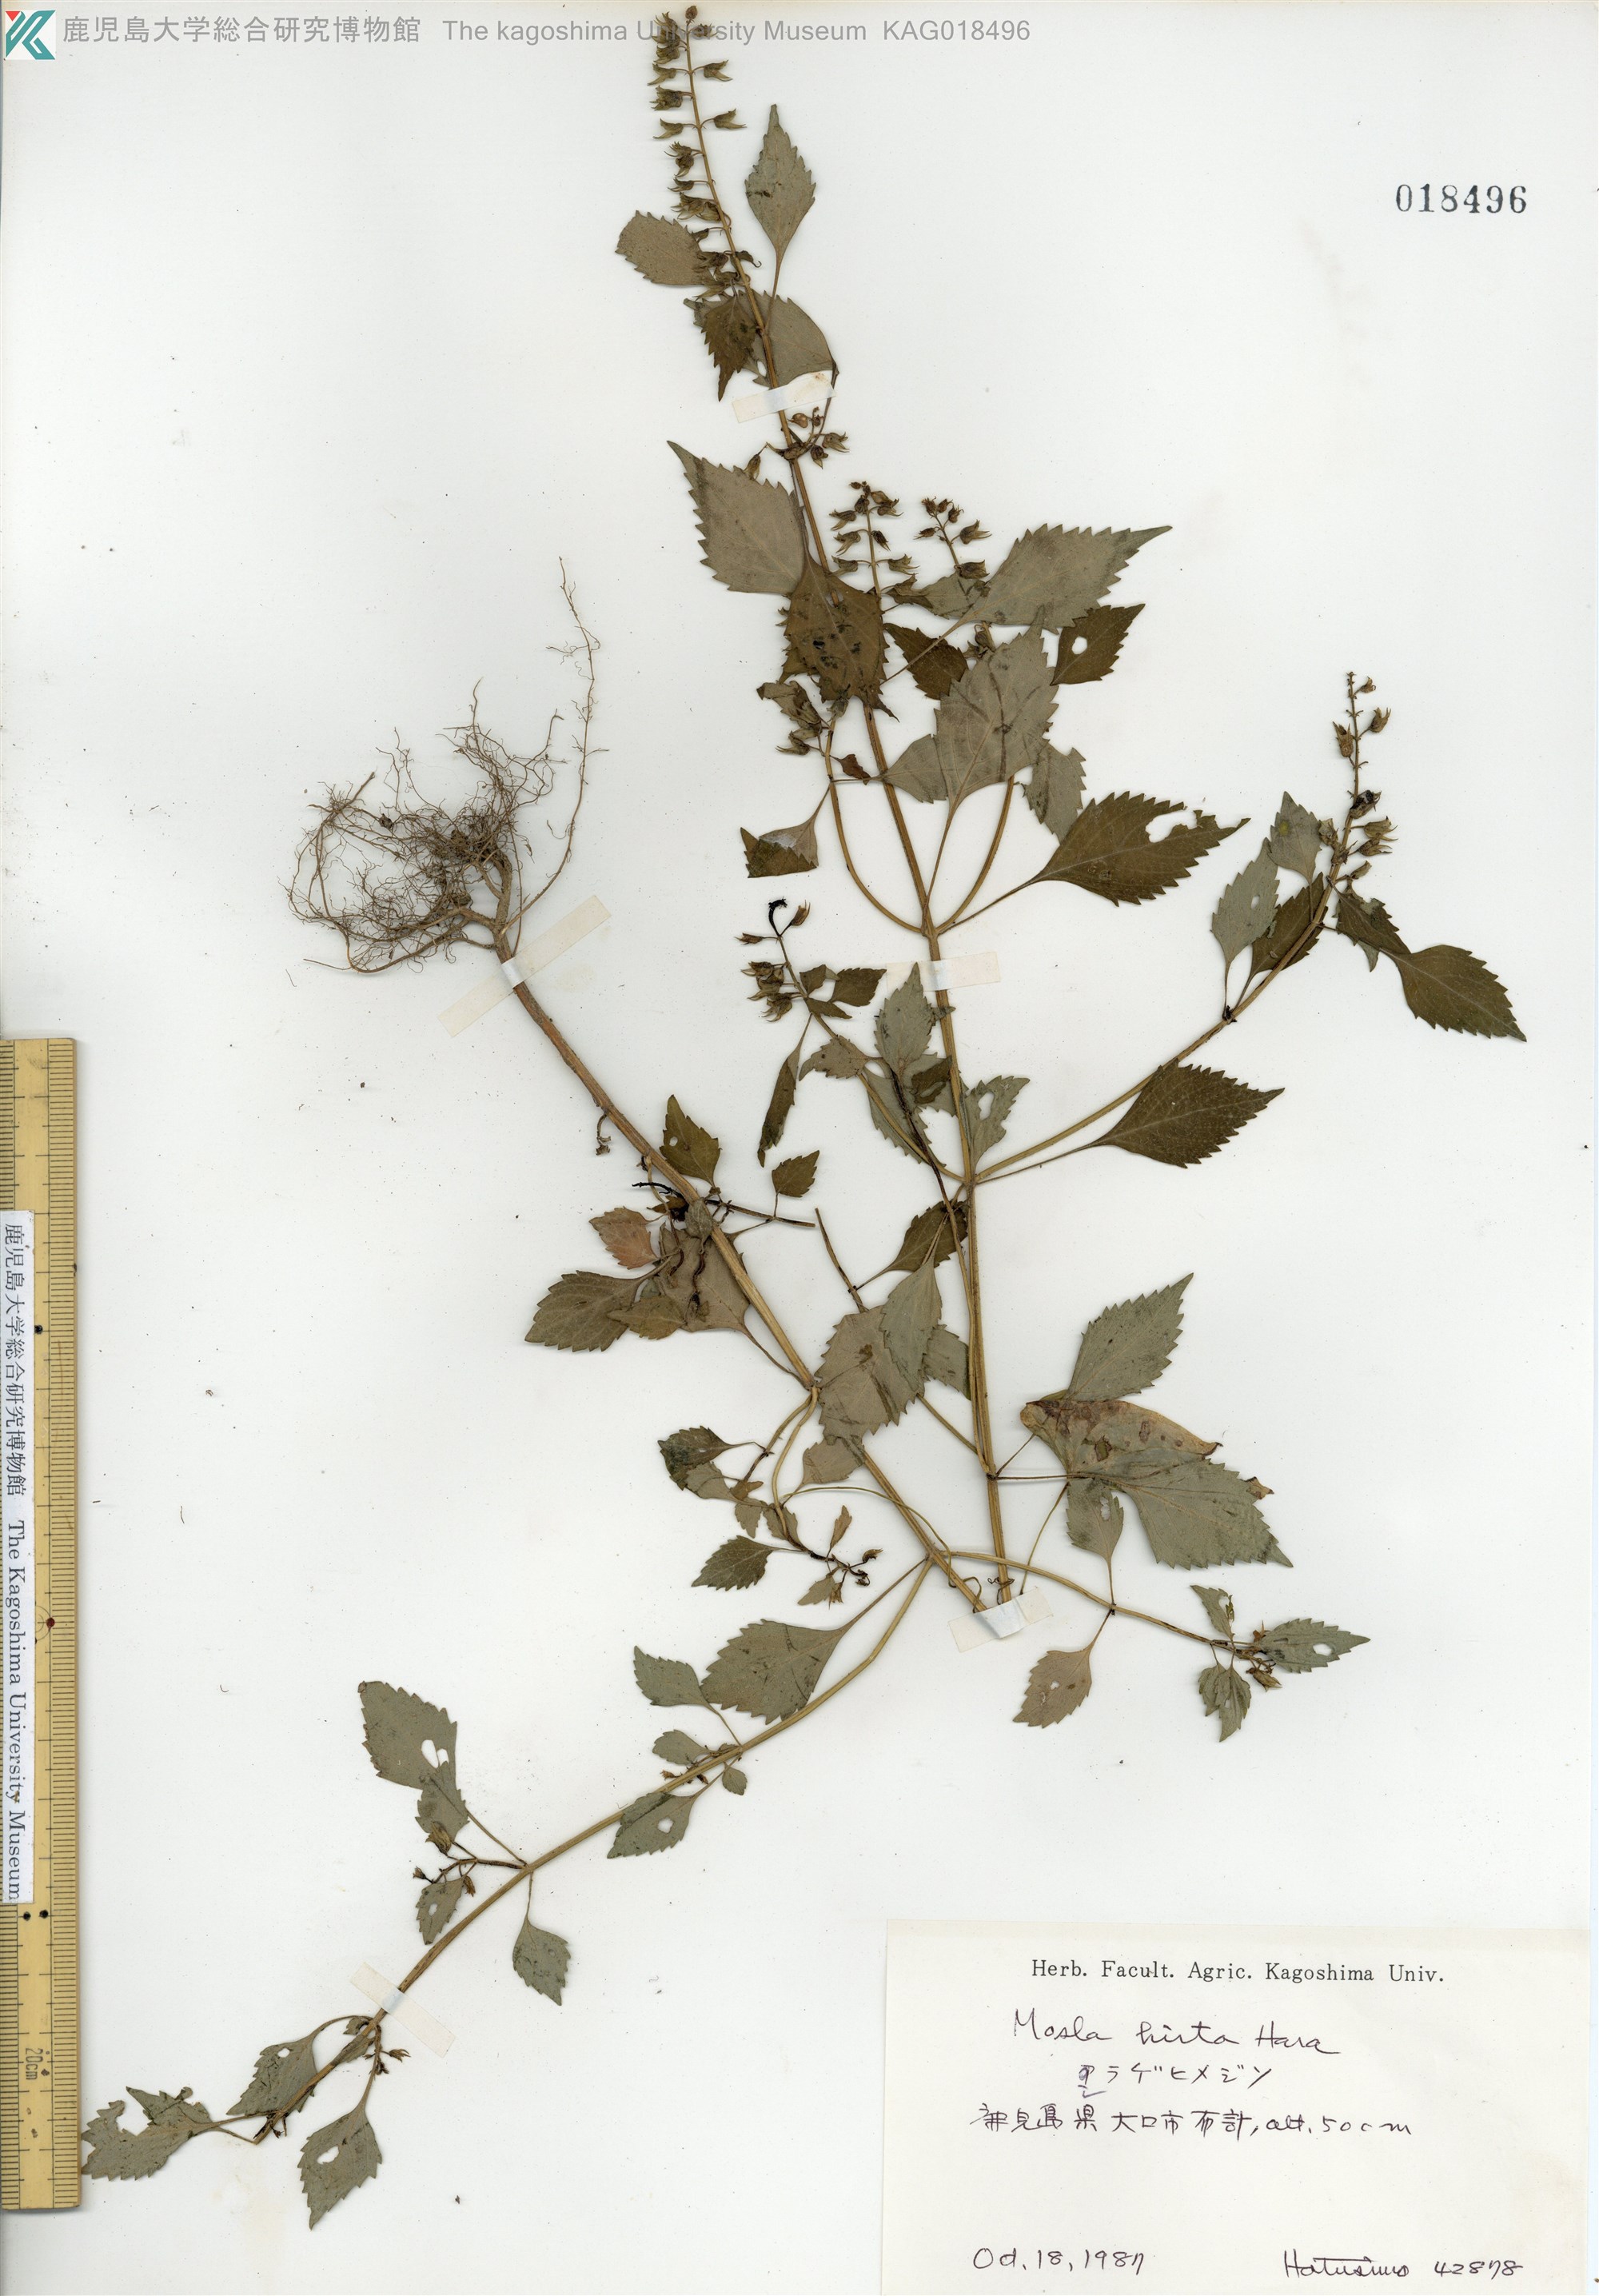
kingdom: Plantae
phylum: Tracheophyta
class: Magnoliopsida
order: Lamiales
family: Lamiaceae
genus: Mosla
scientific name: Mosla dianthera
